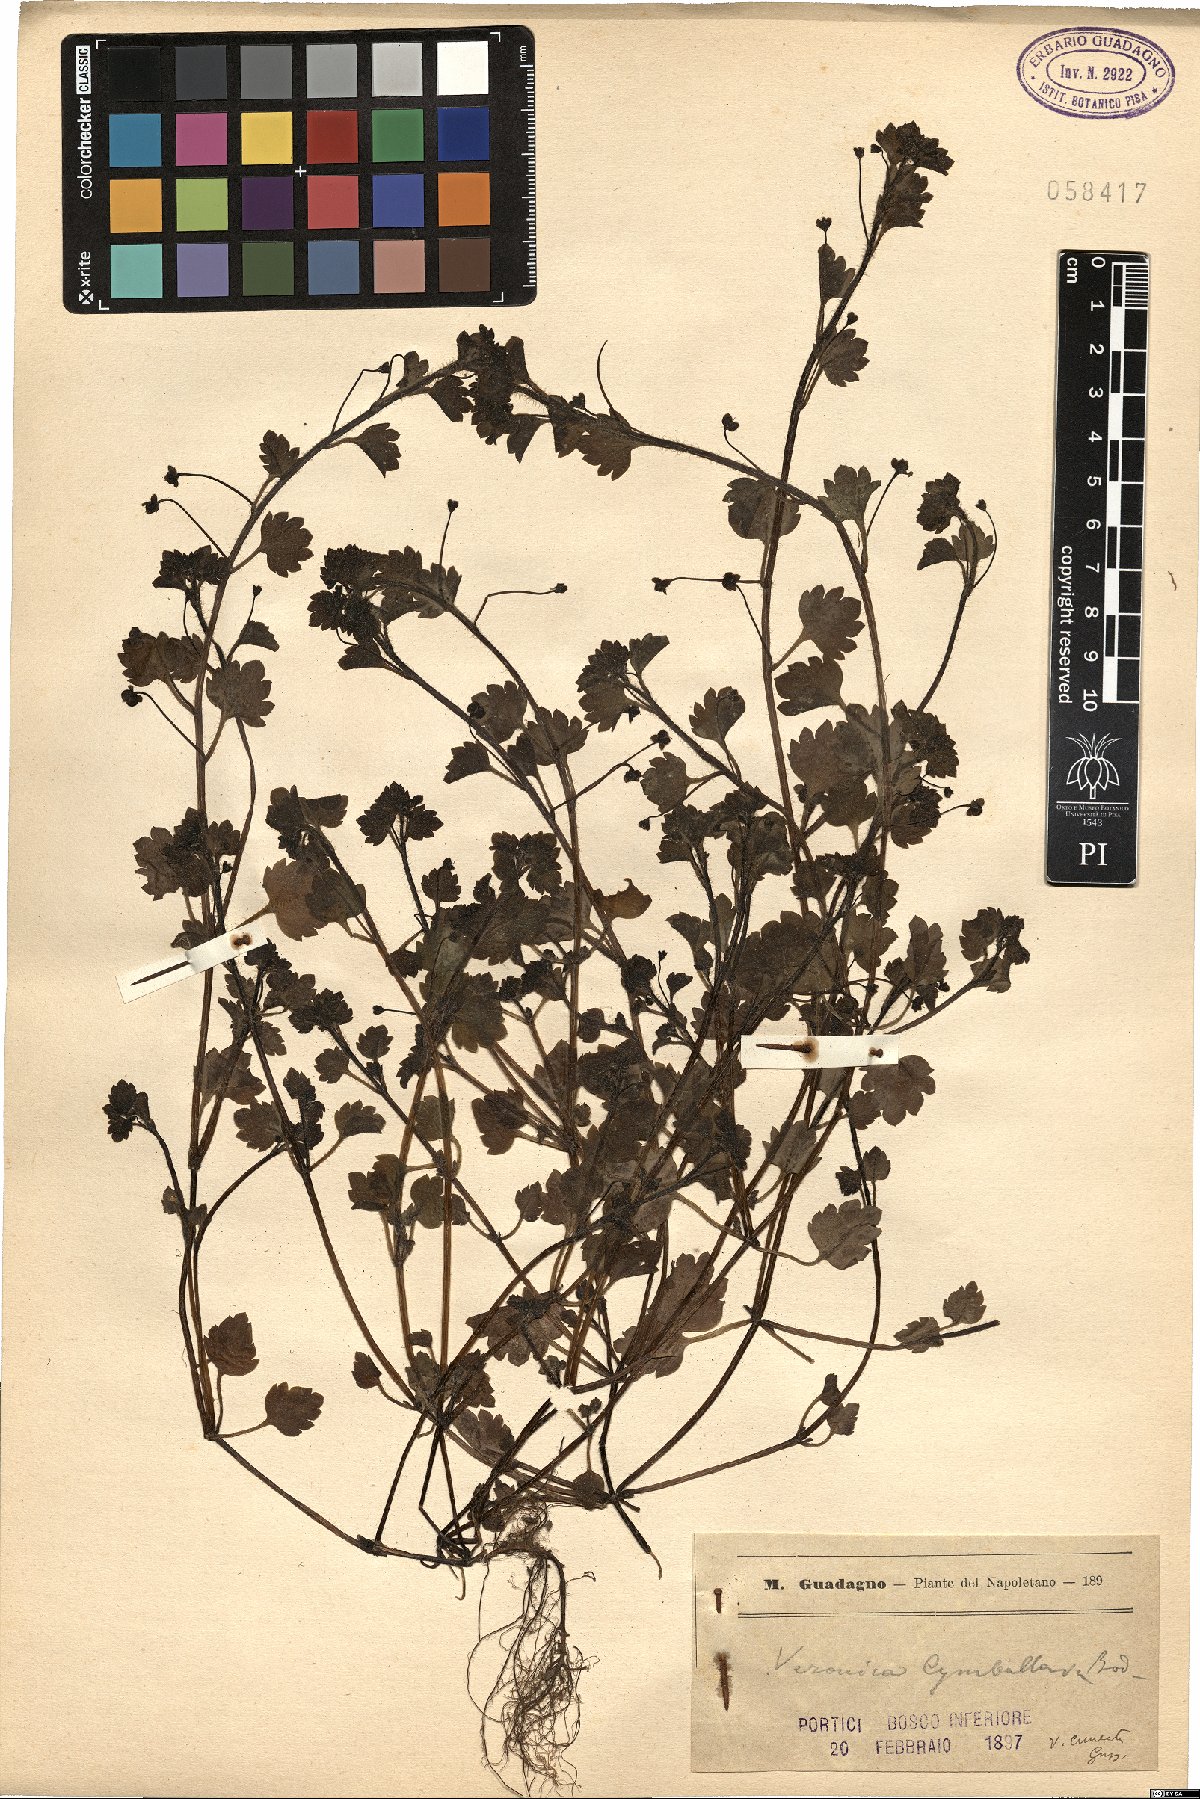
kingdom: Plantae
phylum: Tracheophyta
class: Magnoliopsida
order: Lamiales
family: Plantaginaceae
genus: Veronica
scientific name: Veronica cymbalaria
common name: Pale speedwell
